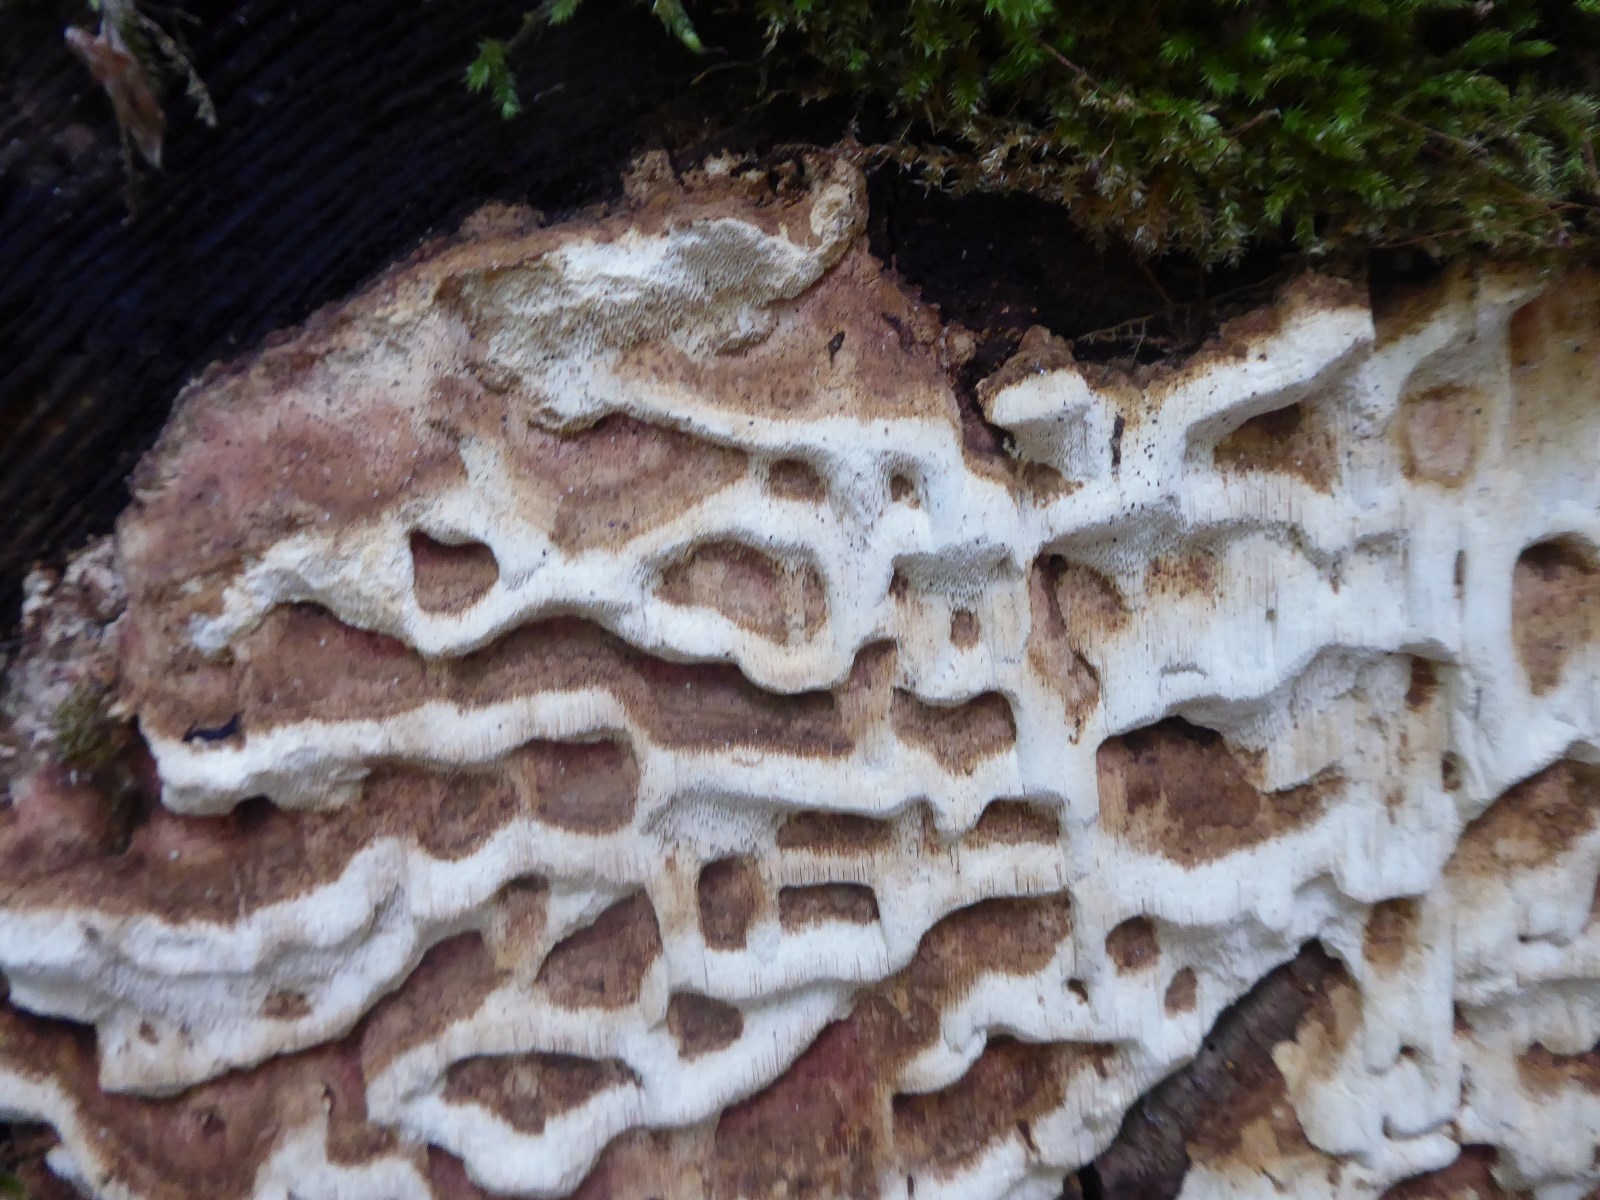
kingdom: Fungi
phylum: Basidiomycota
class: Agaricomycetes
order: Polyporales
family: Fomitopsidaceae
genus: Neoantrodia
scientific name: Neoantrodia serialis
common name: række-sejporesvamp
